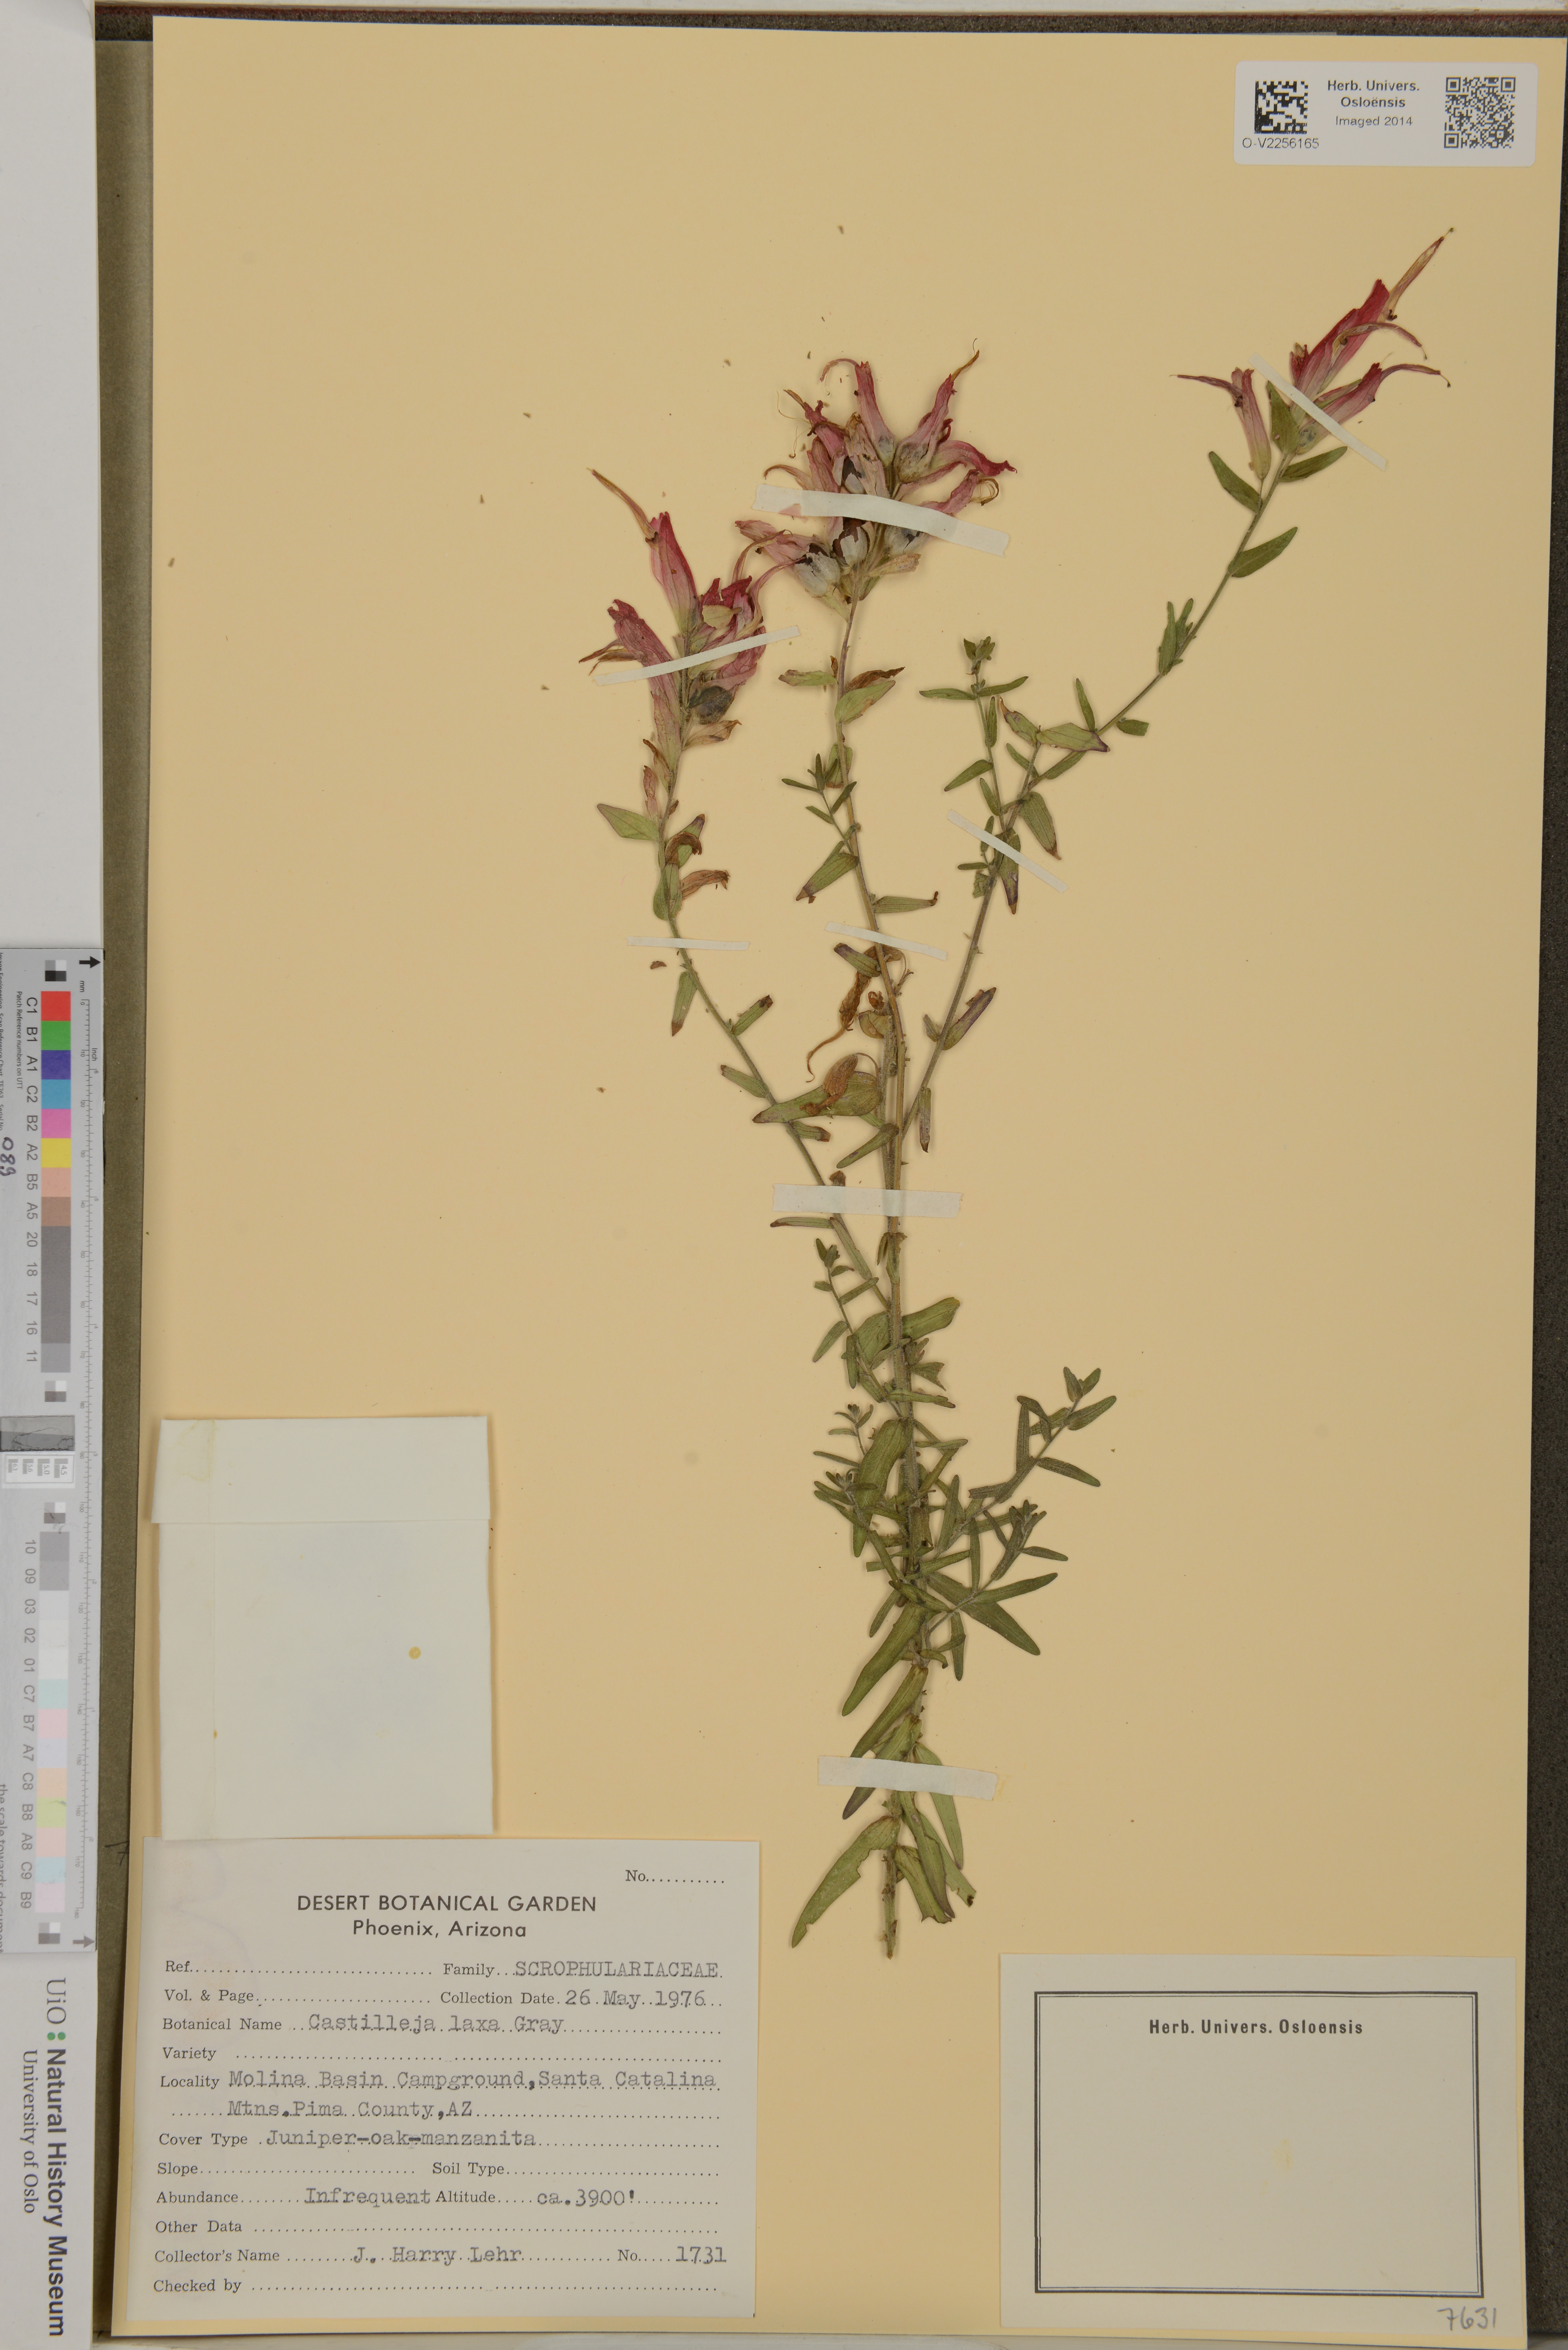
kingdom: Plantae
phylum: Tracheophyta
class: Magnoliopsida
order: Lamiales
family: Orobanchaceae
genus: Castilleja
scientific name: Castilleja tenuiflora
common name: Santa catalina indian paintbrush
